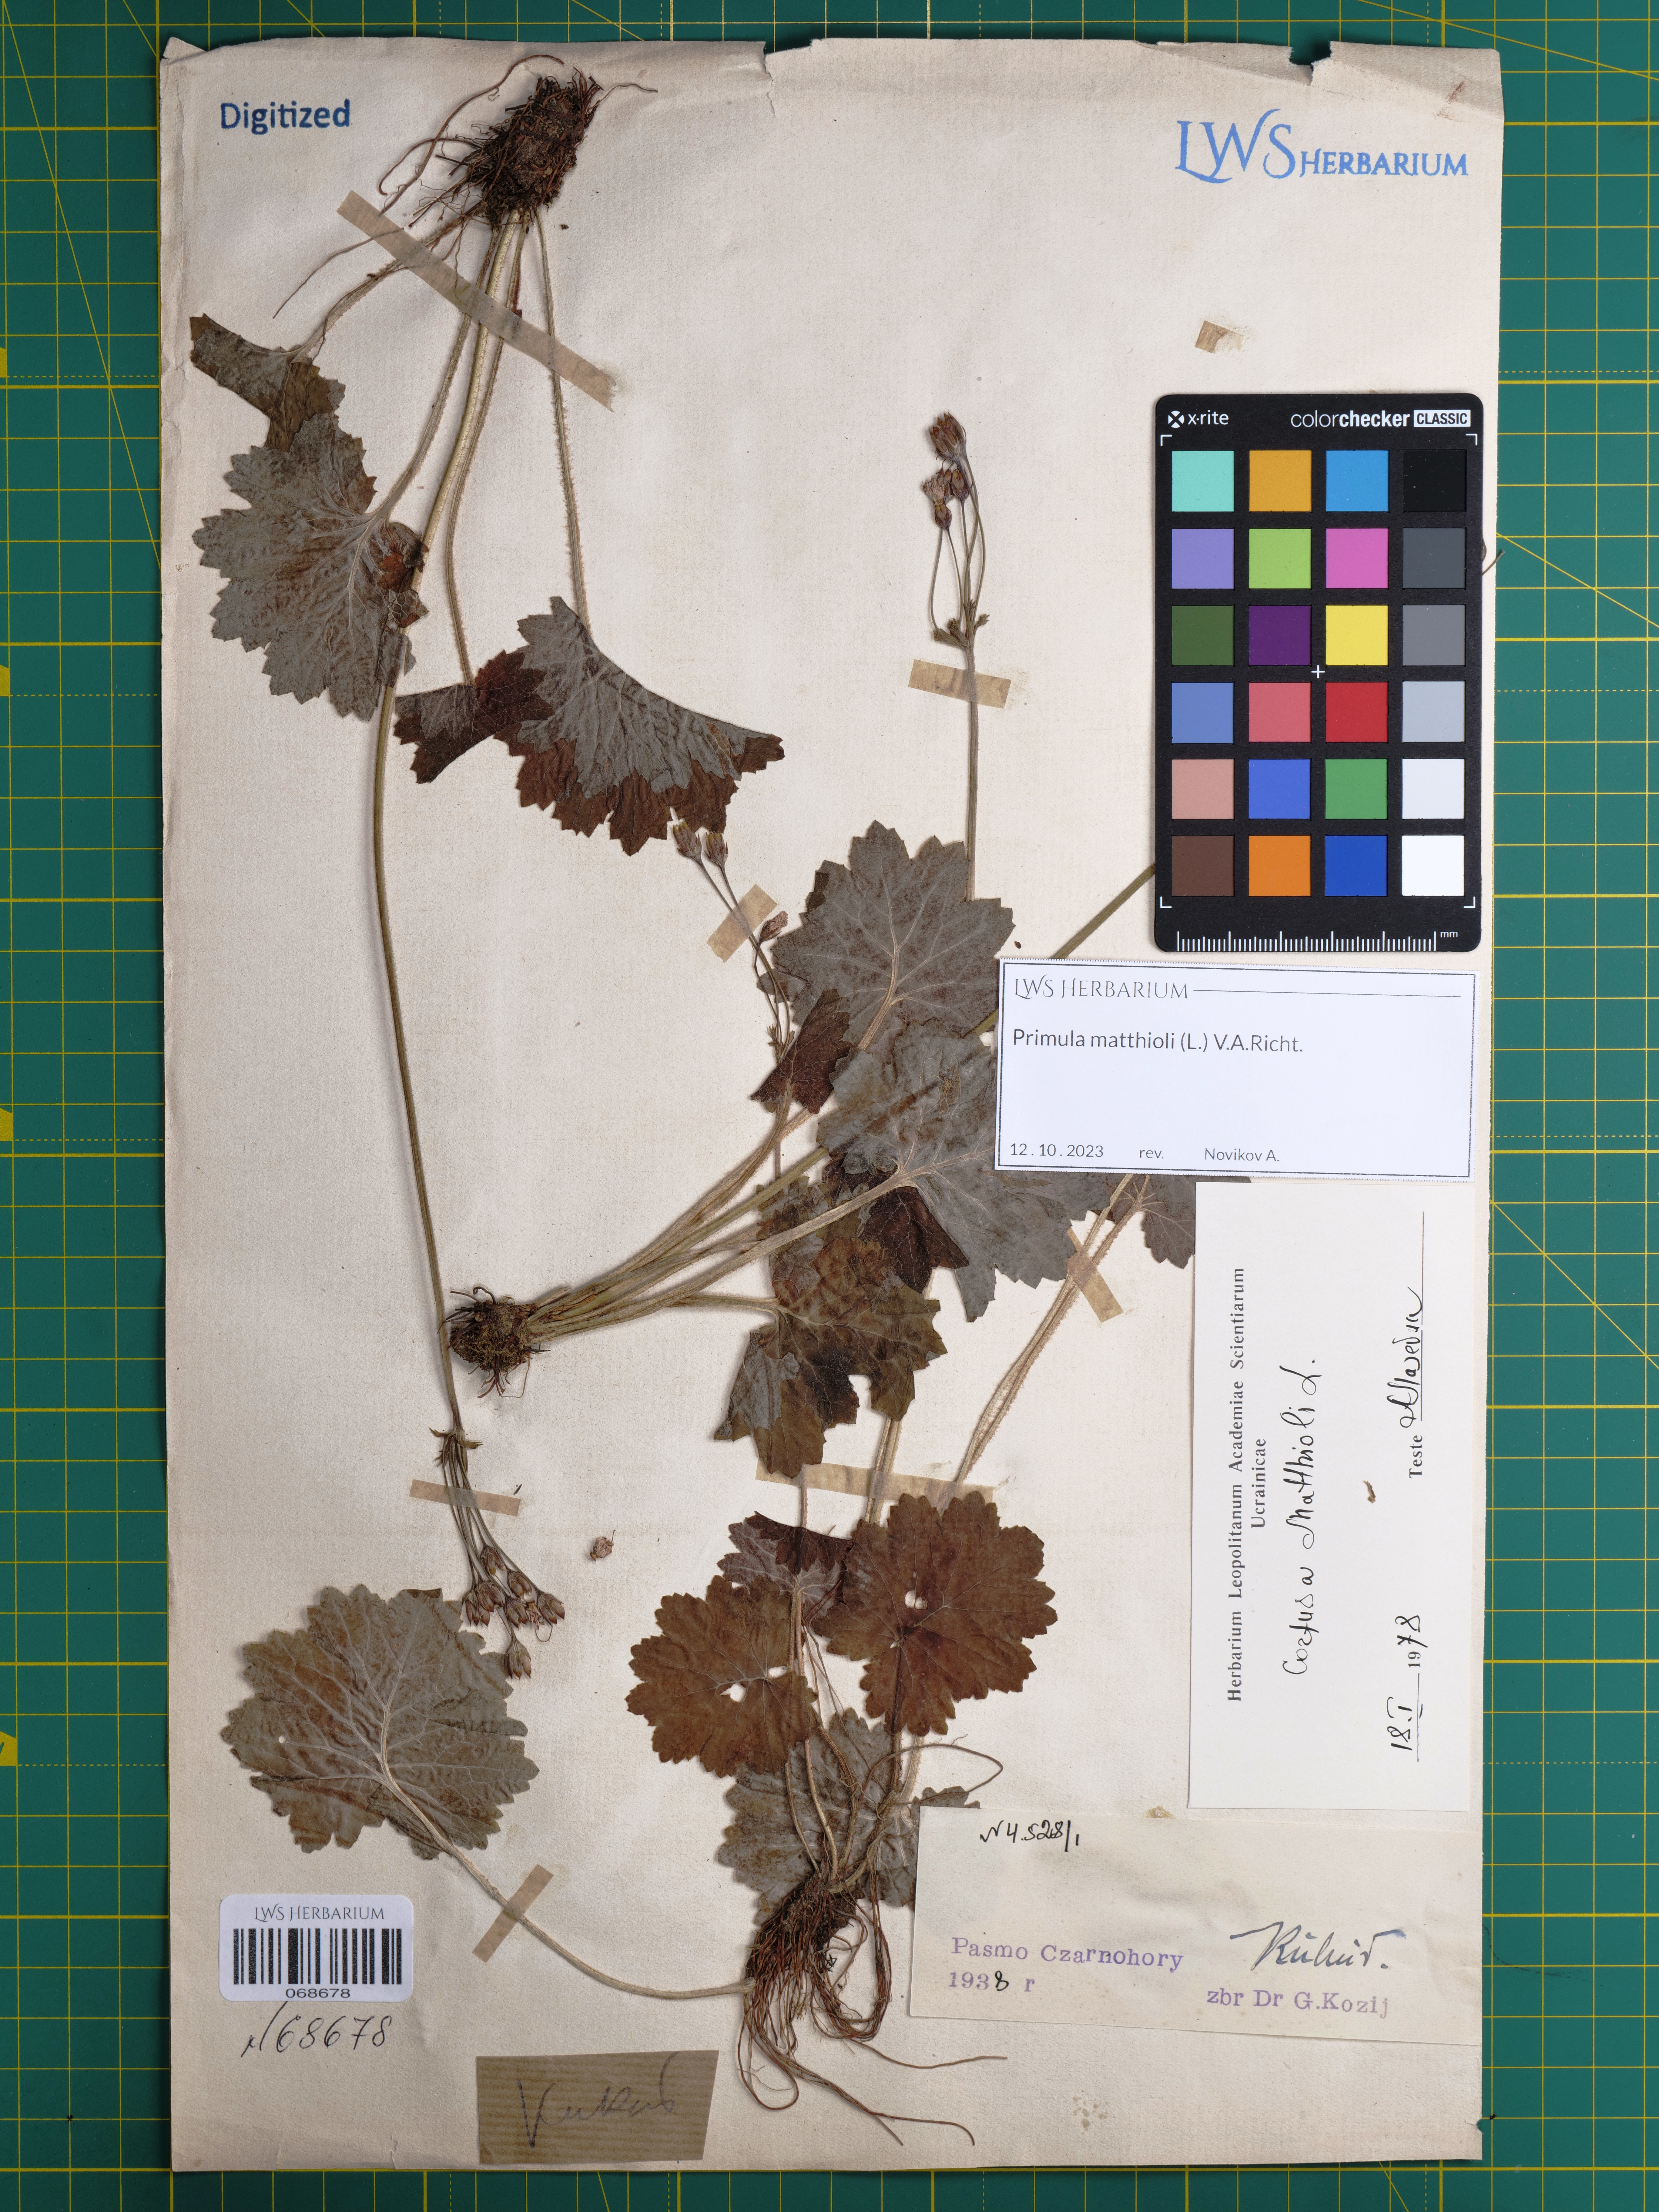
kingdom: Plantae
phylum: Tracheophyta
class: Magnoliopsida
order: Ericales
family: Primulaceae
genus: Primula
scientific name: Primula matthioli
